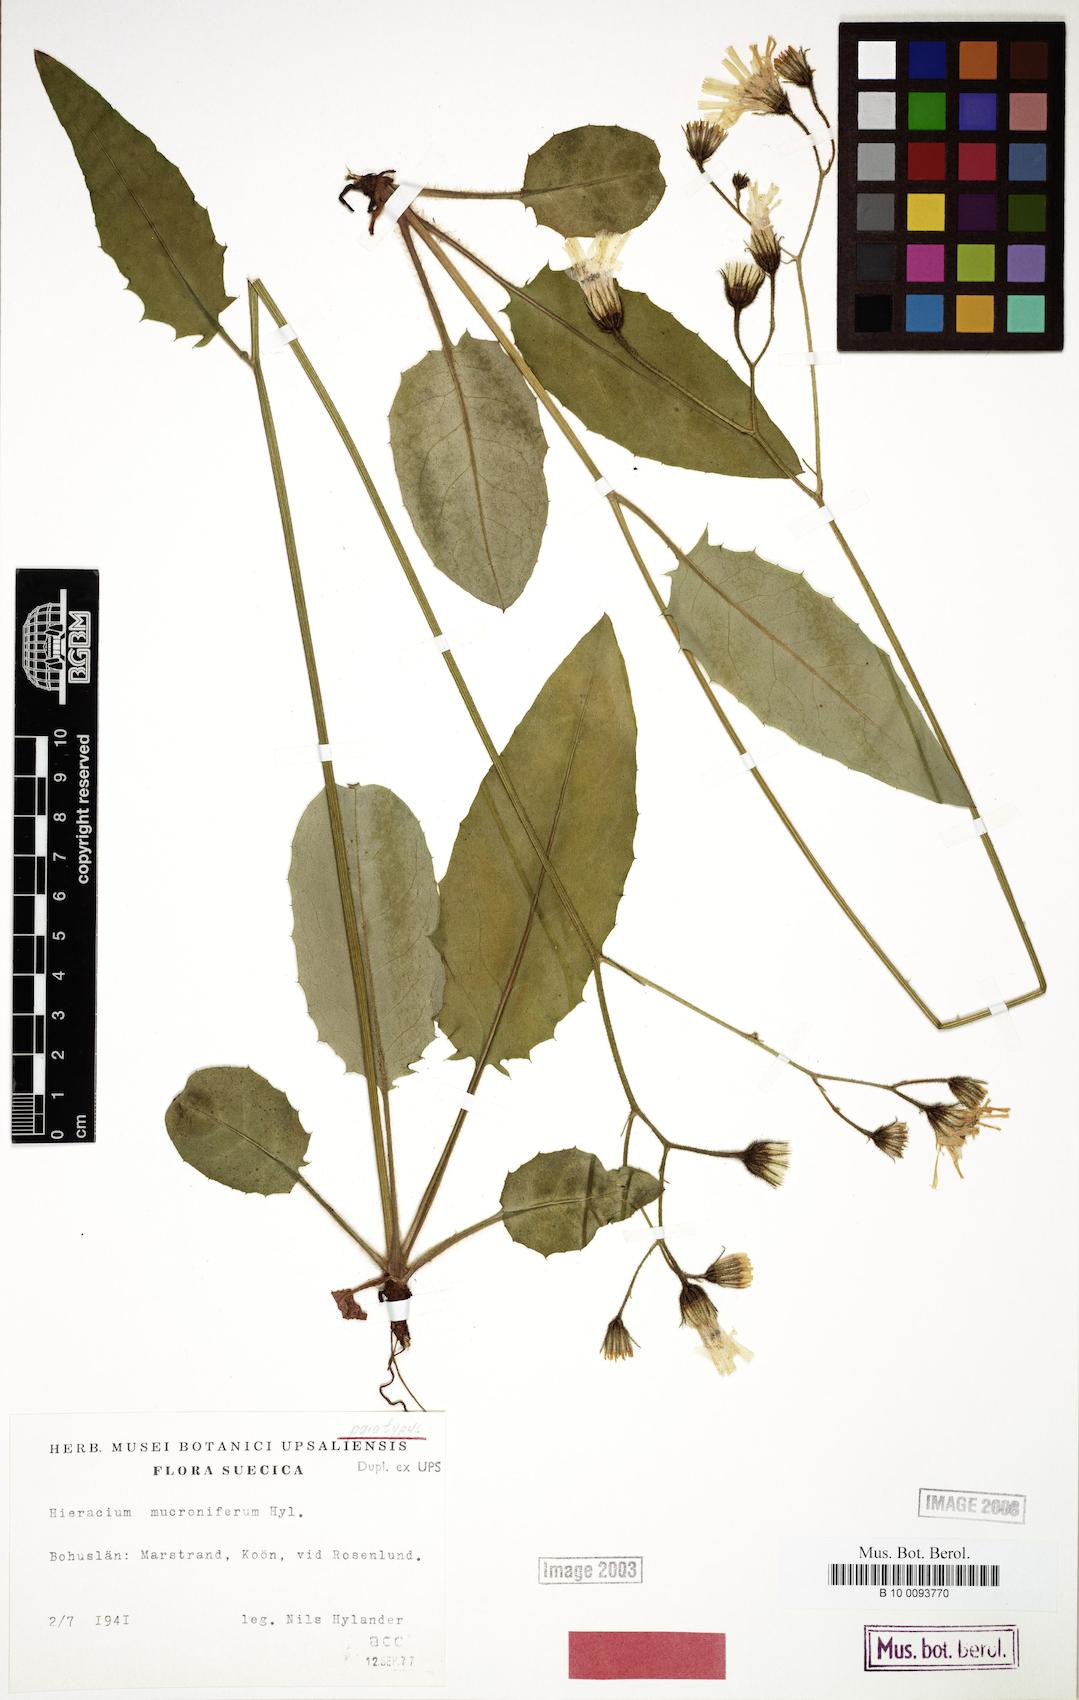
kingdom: Plantae
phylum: Tracheophyta
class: Magnoliopsida
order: Asterales
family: Asteraceae
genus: Hieracium
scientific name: Hieracium mucroniferum
